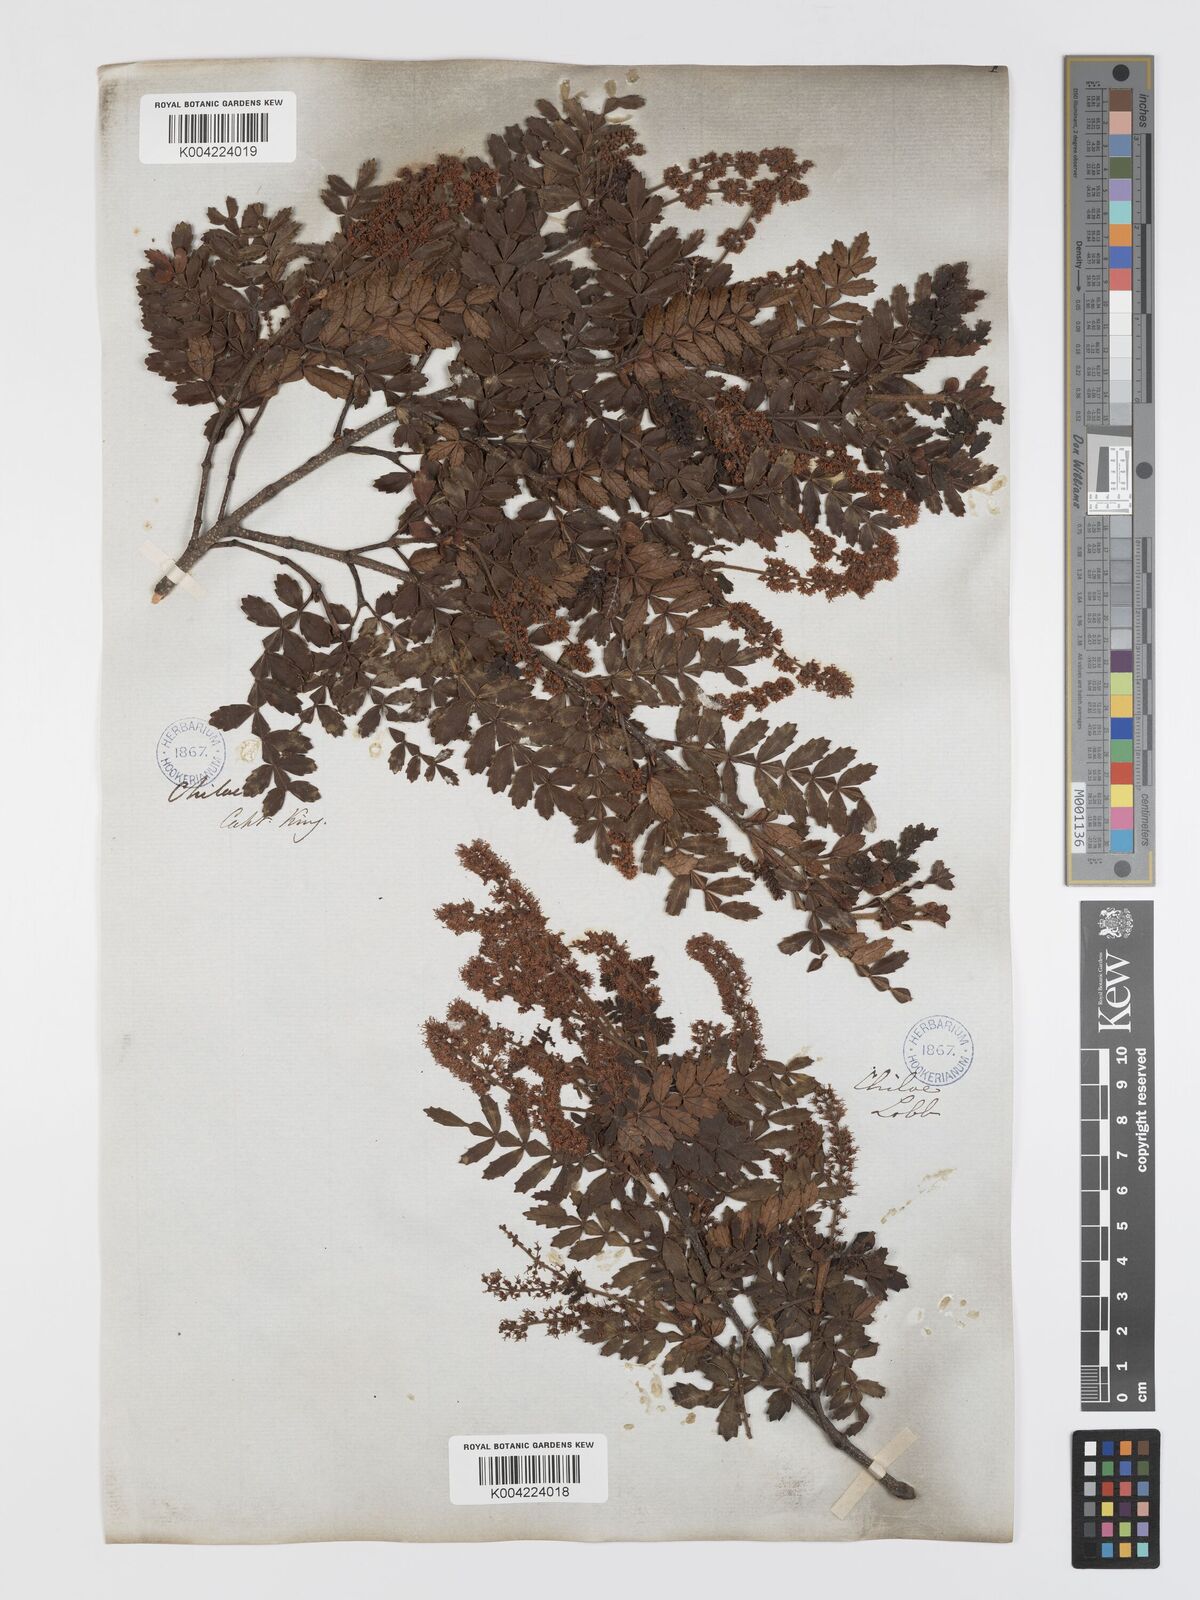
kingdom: Plantae
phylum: Tracheophyta
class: Magnoliopsida
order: Oxalidales
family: Cunoniaceae
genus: Weinmannia
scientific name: Weinmannia trichosperma
